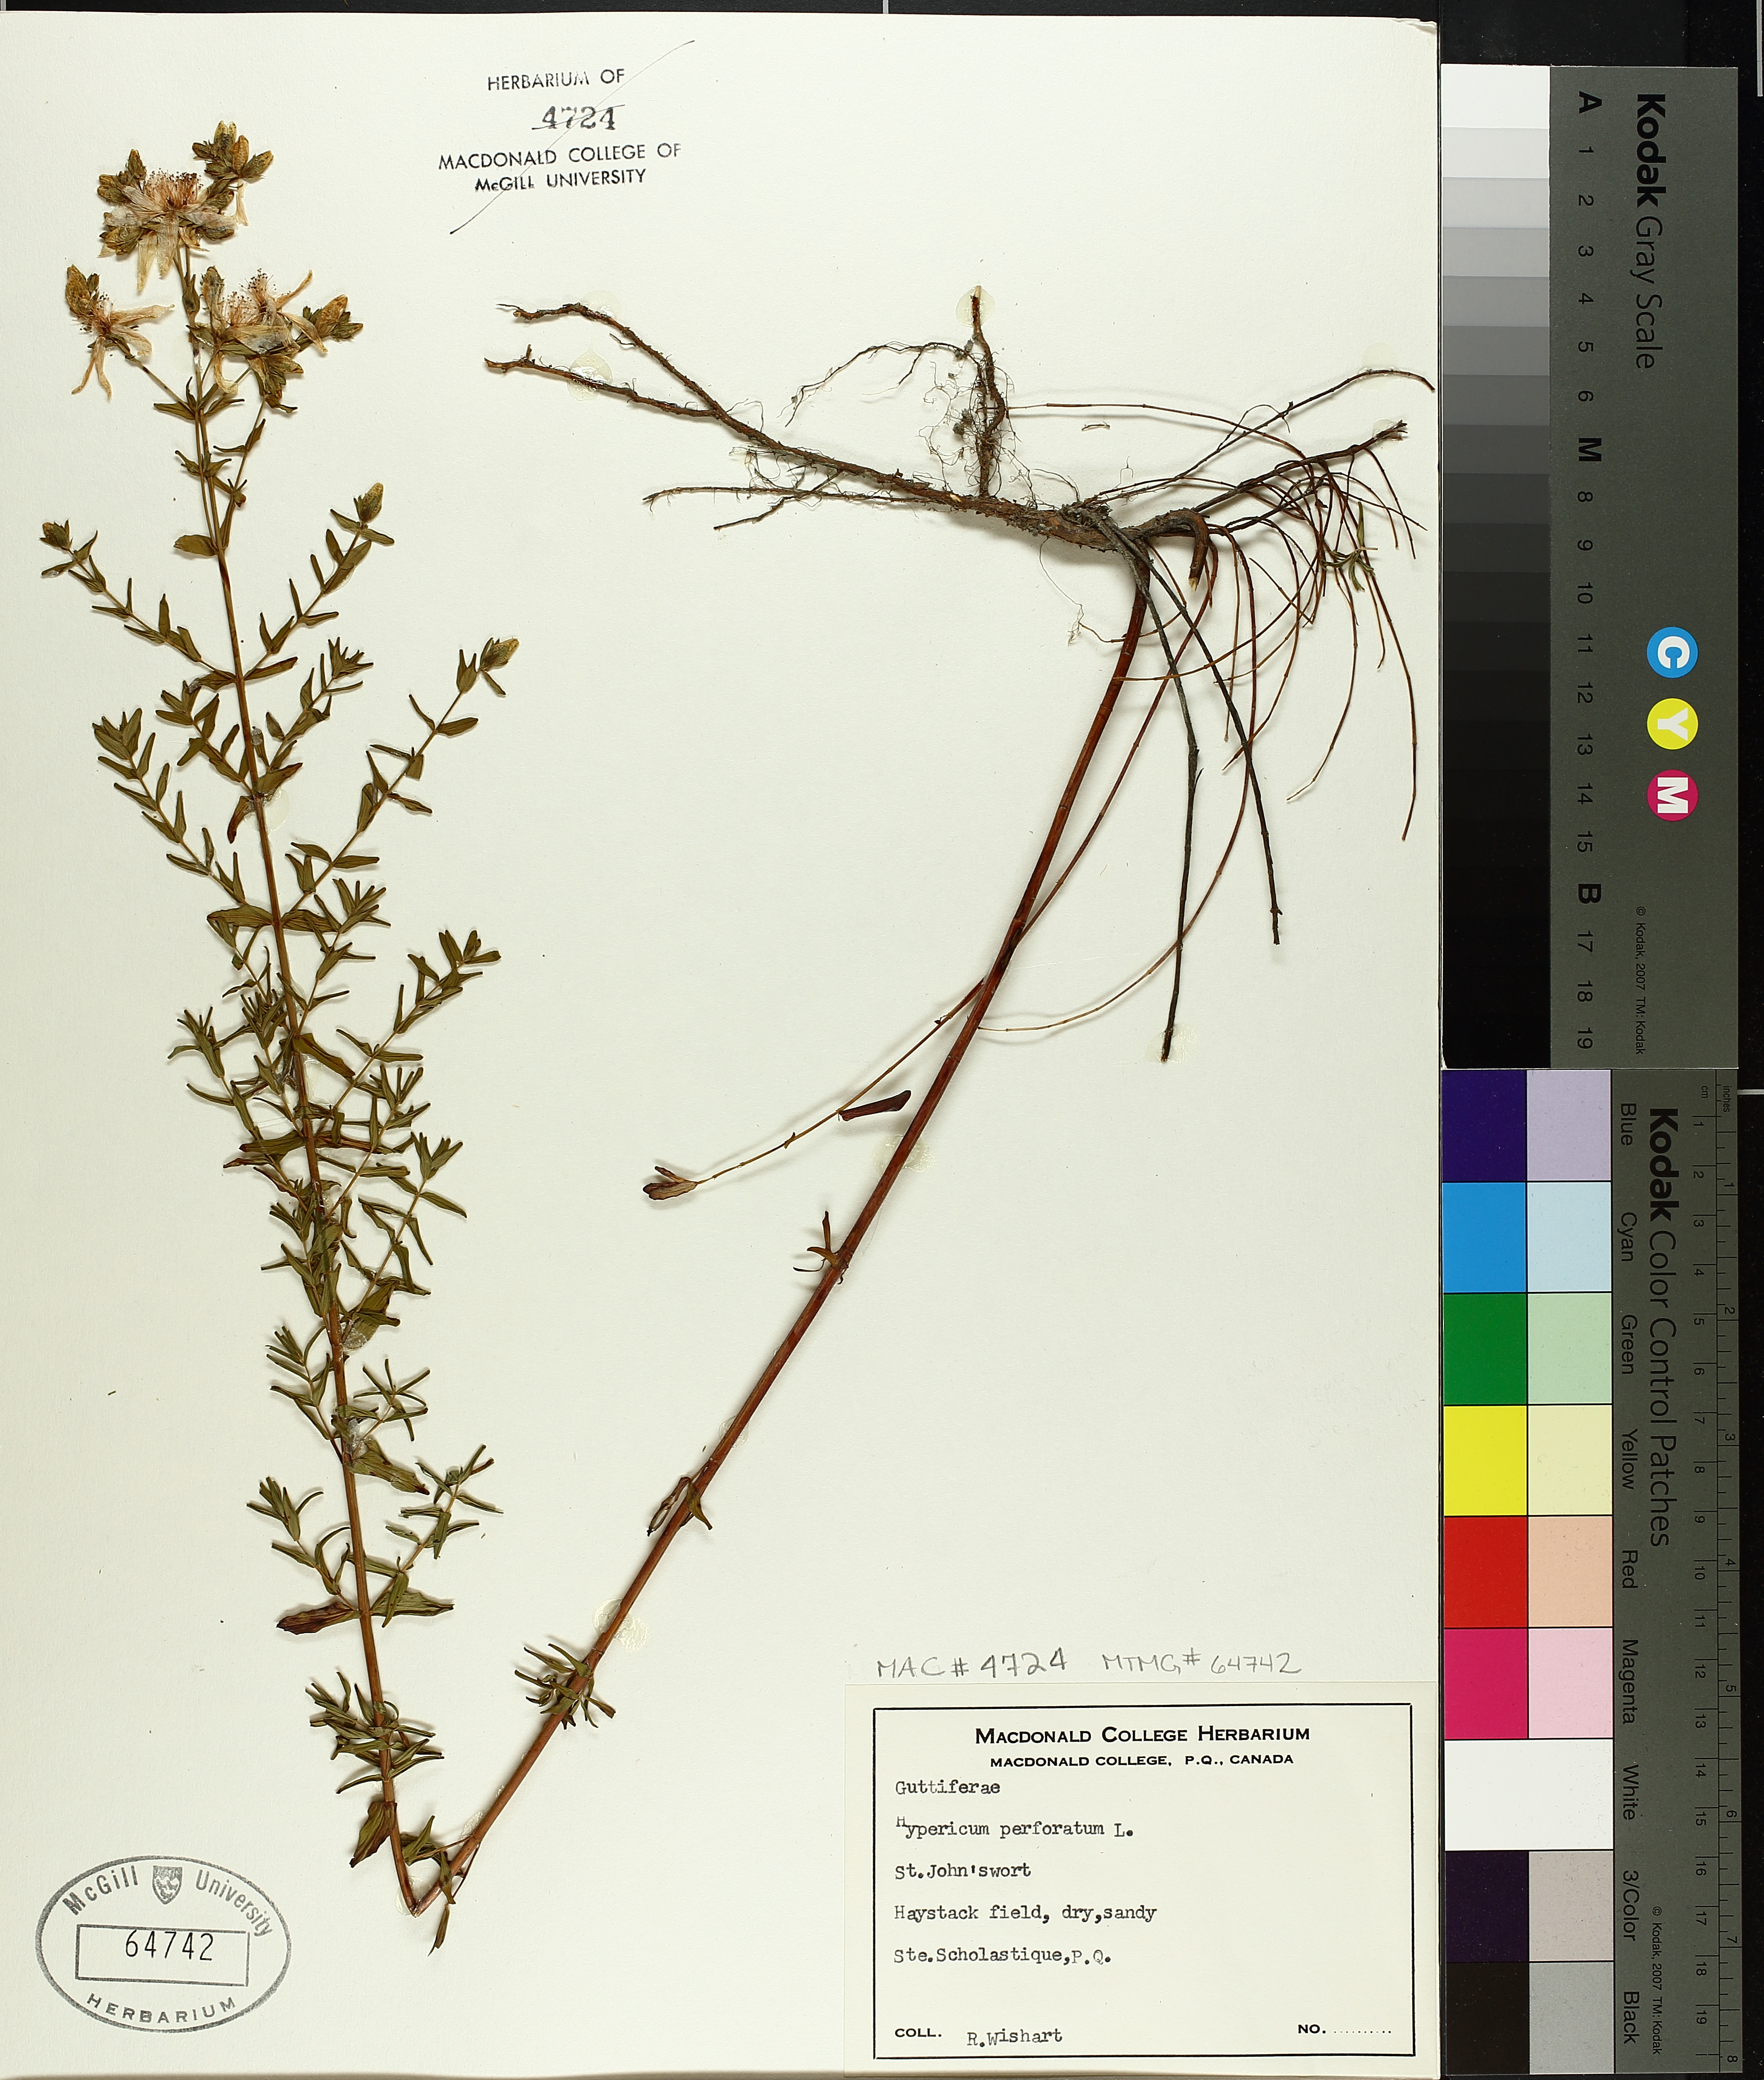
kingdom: Plantae
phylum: Tracheophyta
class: Magnoliopsida
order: Malpighiales
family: Hypericaceae
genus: Hypericum
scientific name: Hypericum perforatum
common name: Common st. johnswort
